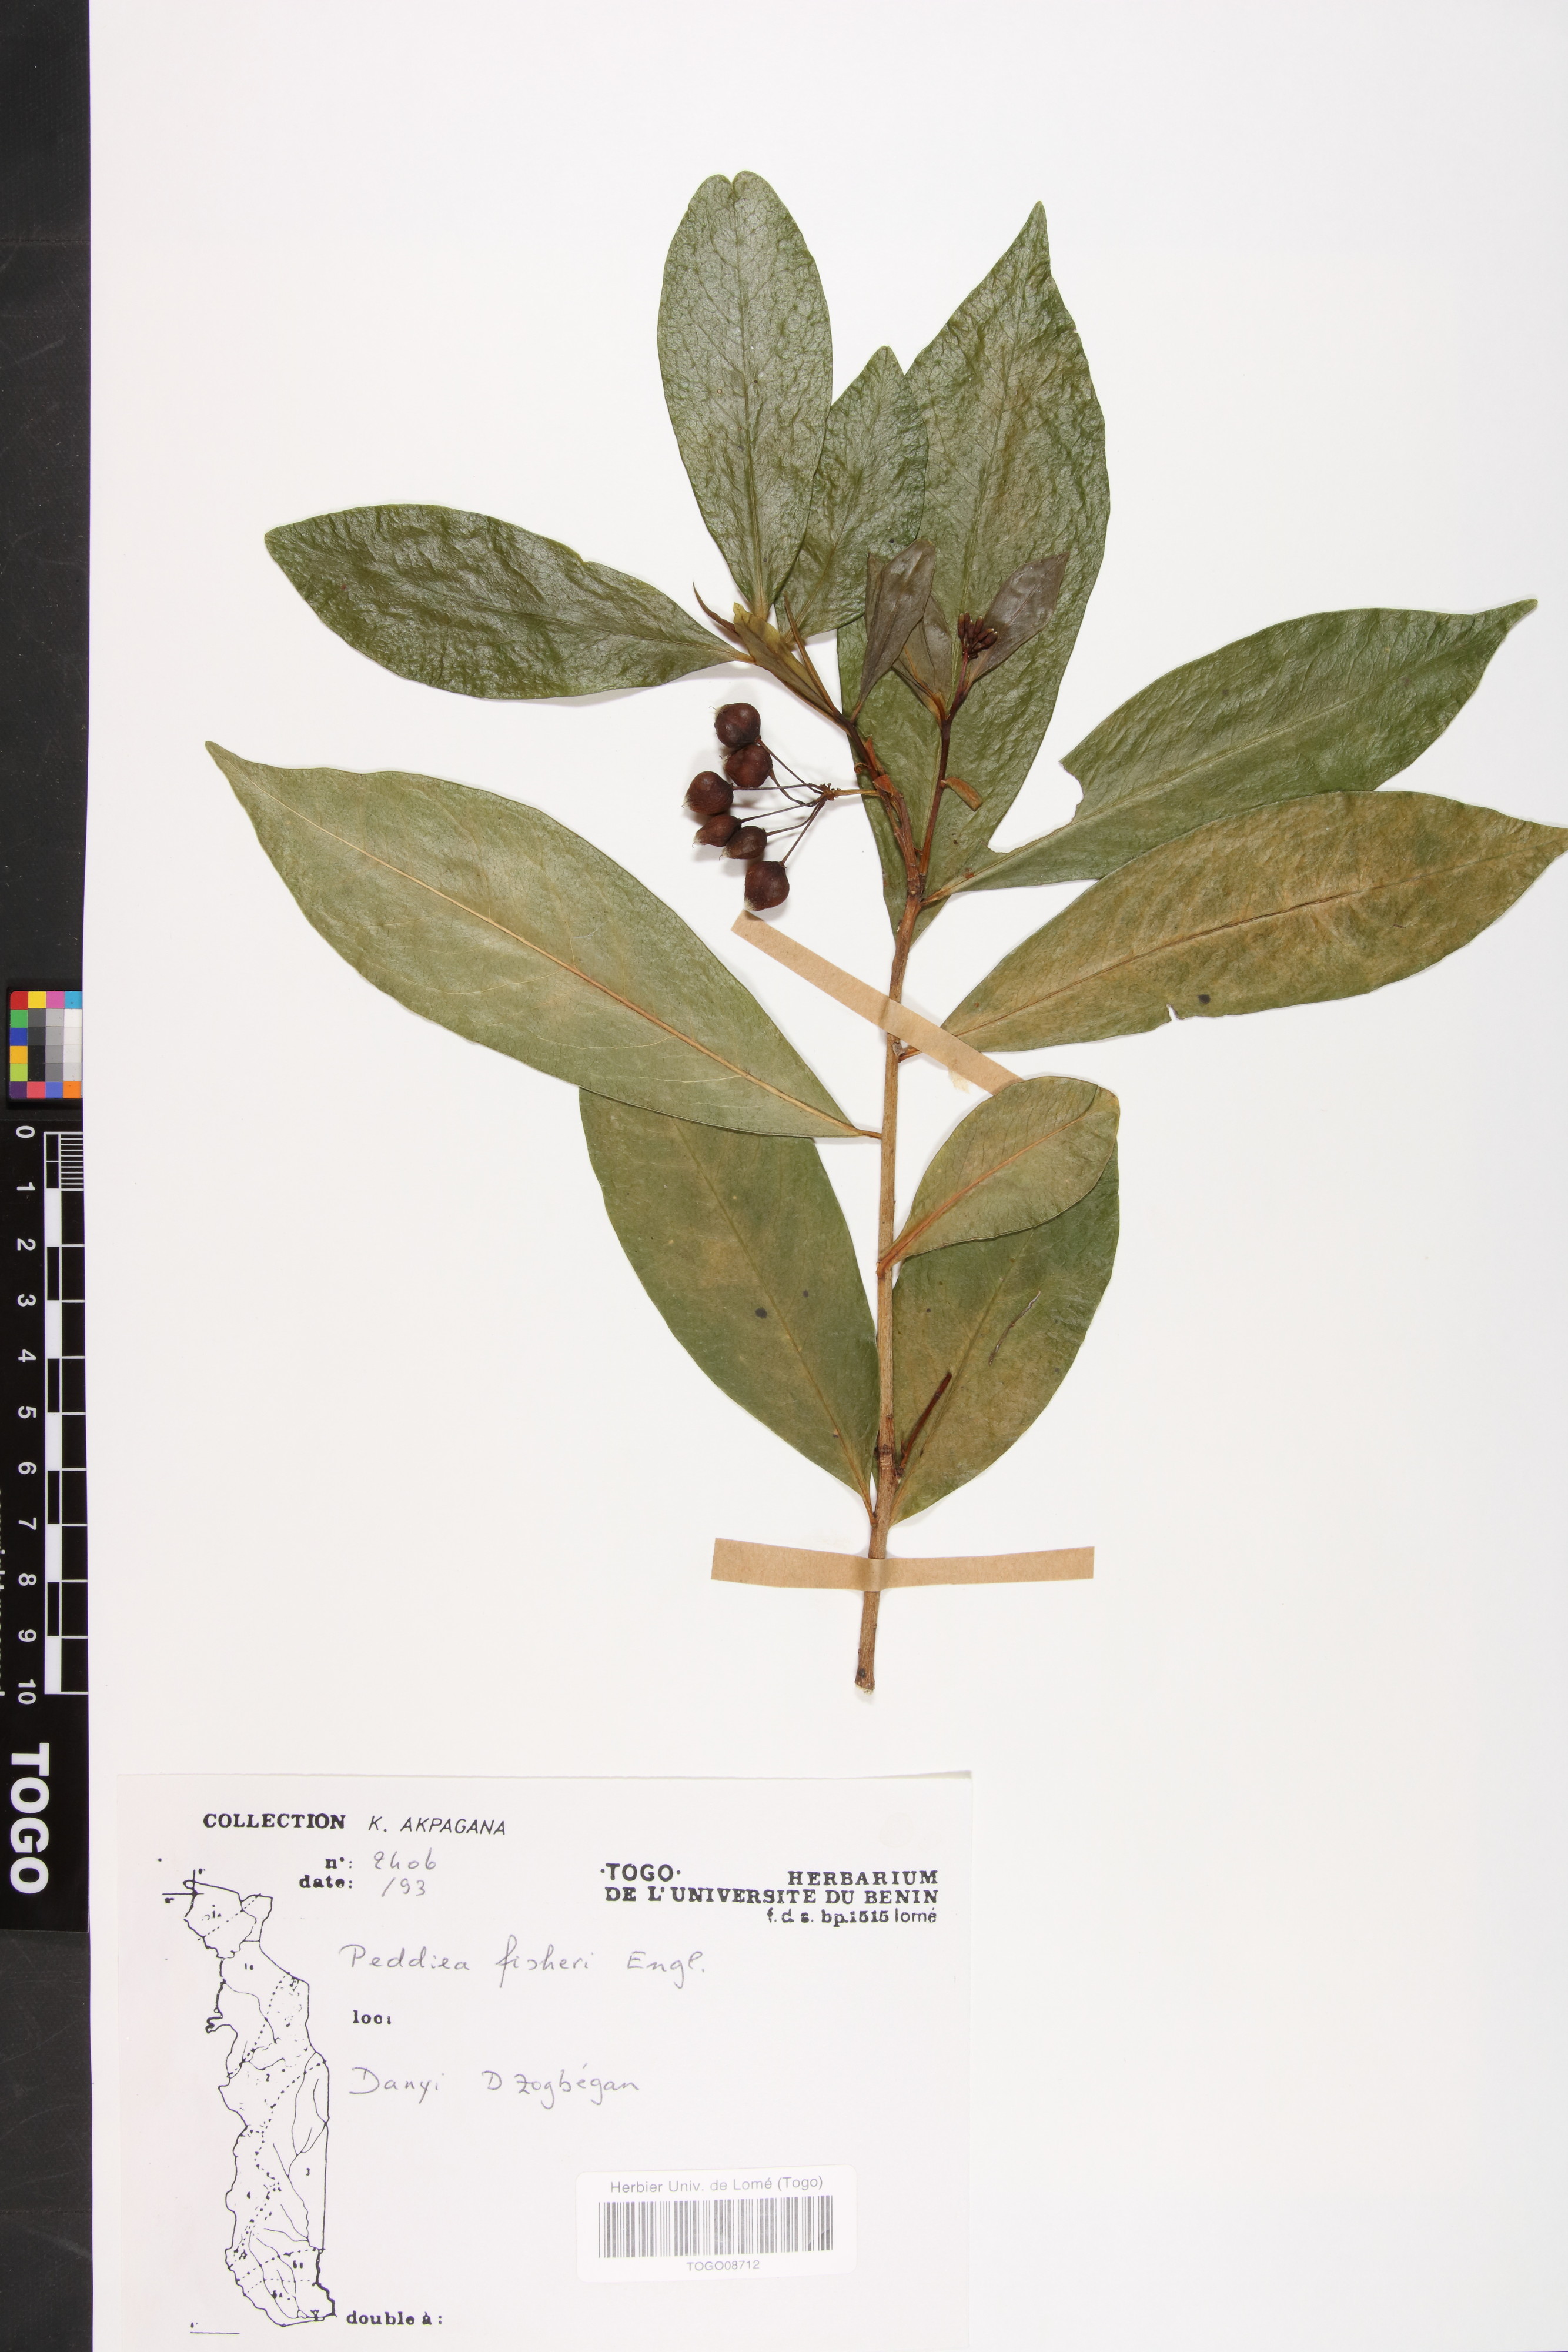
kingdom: Plantae
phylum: Tracheophyta
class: Magnoliopsida
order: Malvales
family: Thymelaeaceae
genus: Peddiea
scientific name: Peddiea fischeri
